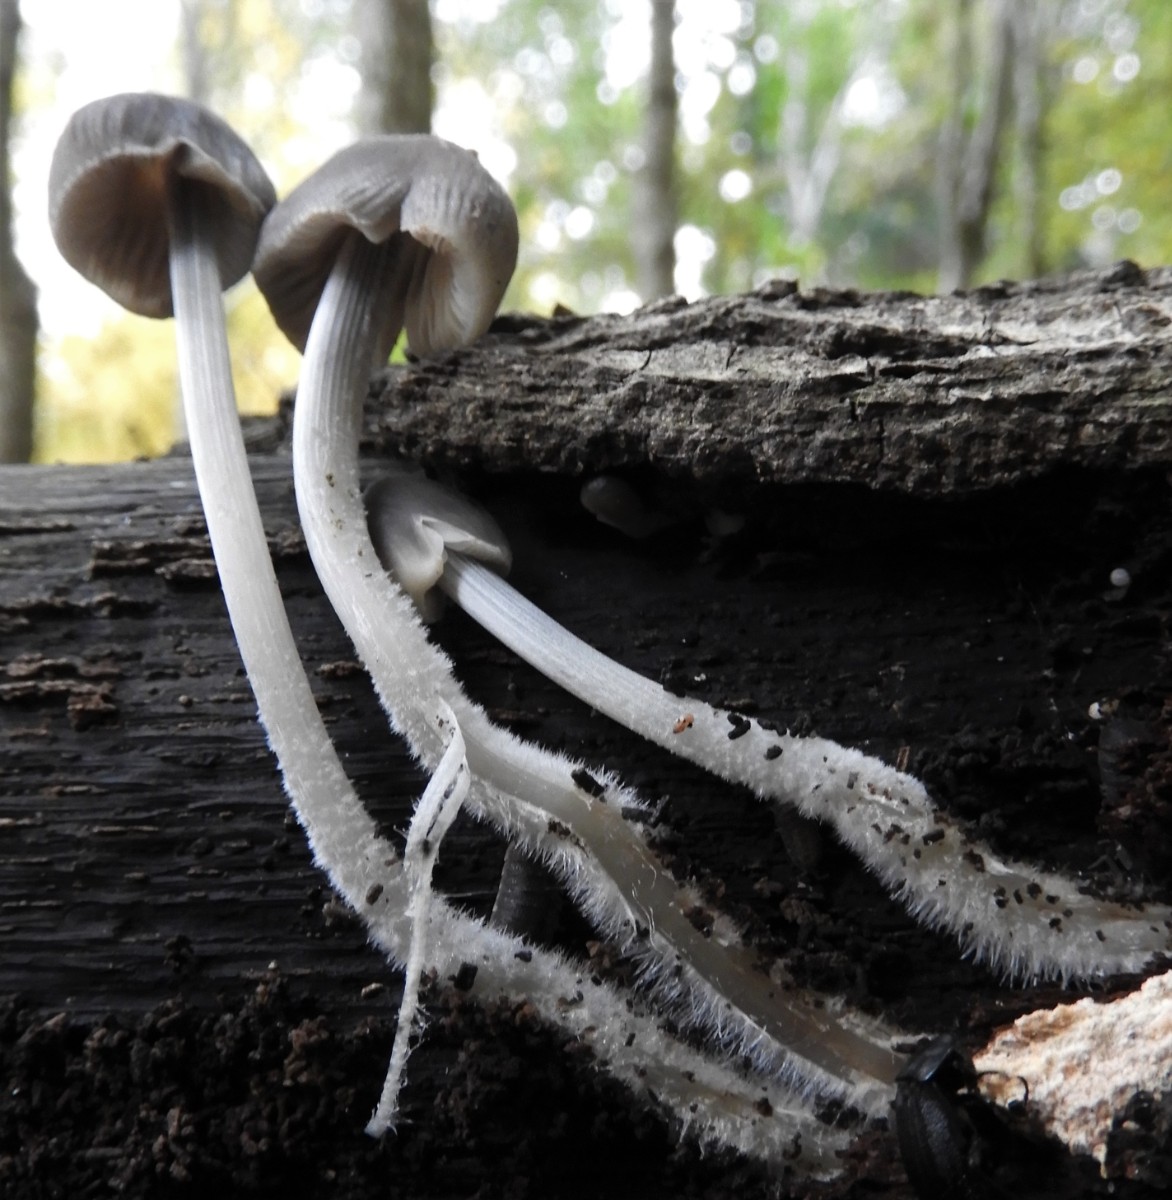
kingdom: Fungi
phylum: Basidiomycota
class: Agaricomycetes
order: Agaricales
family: Mycenaceae
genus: Mycena
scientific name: Mycena polygramma
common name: mangestribet huesvamp
